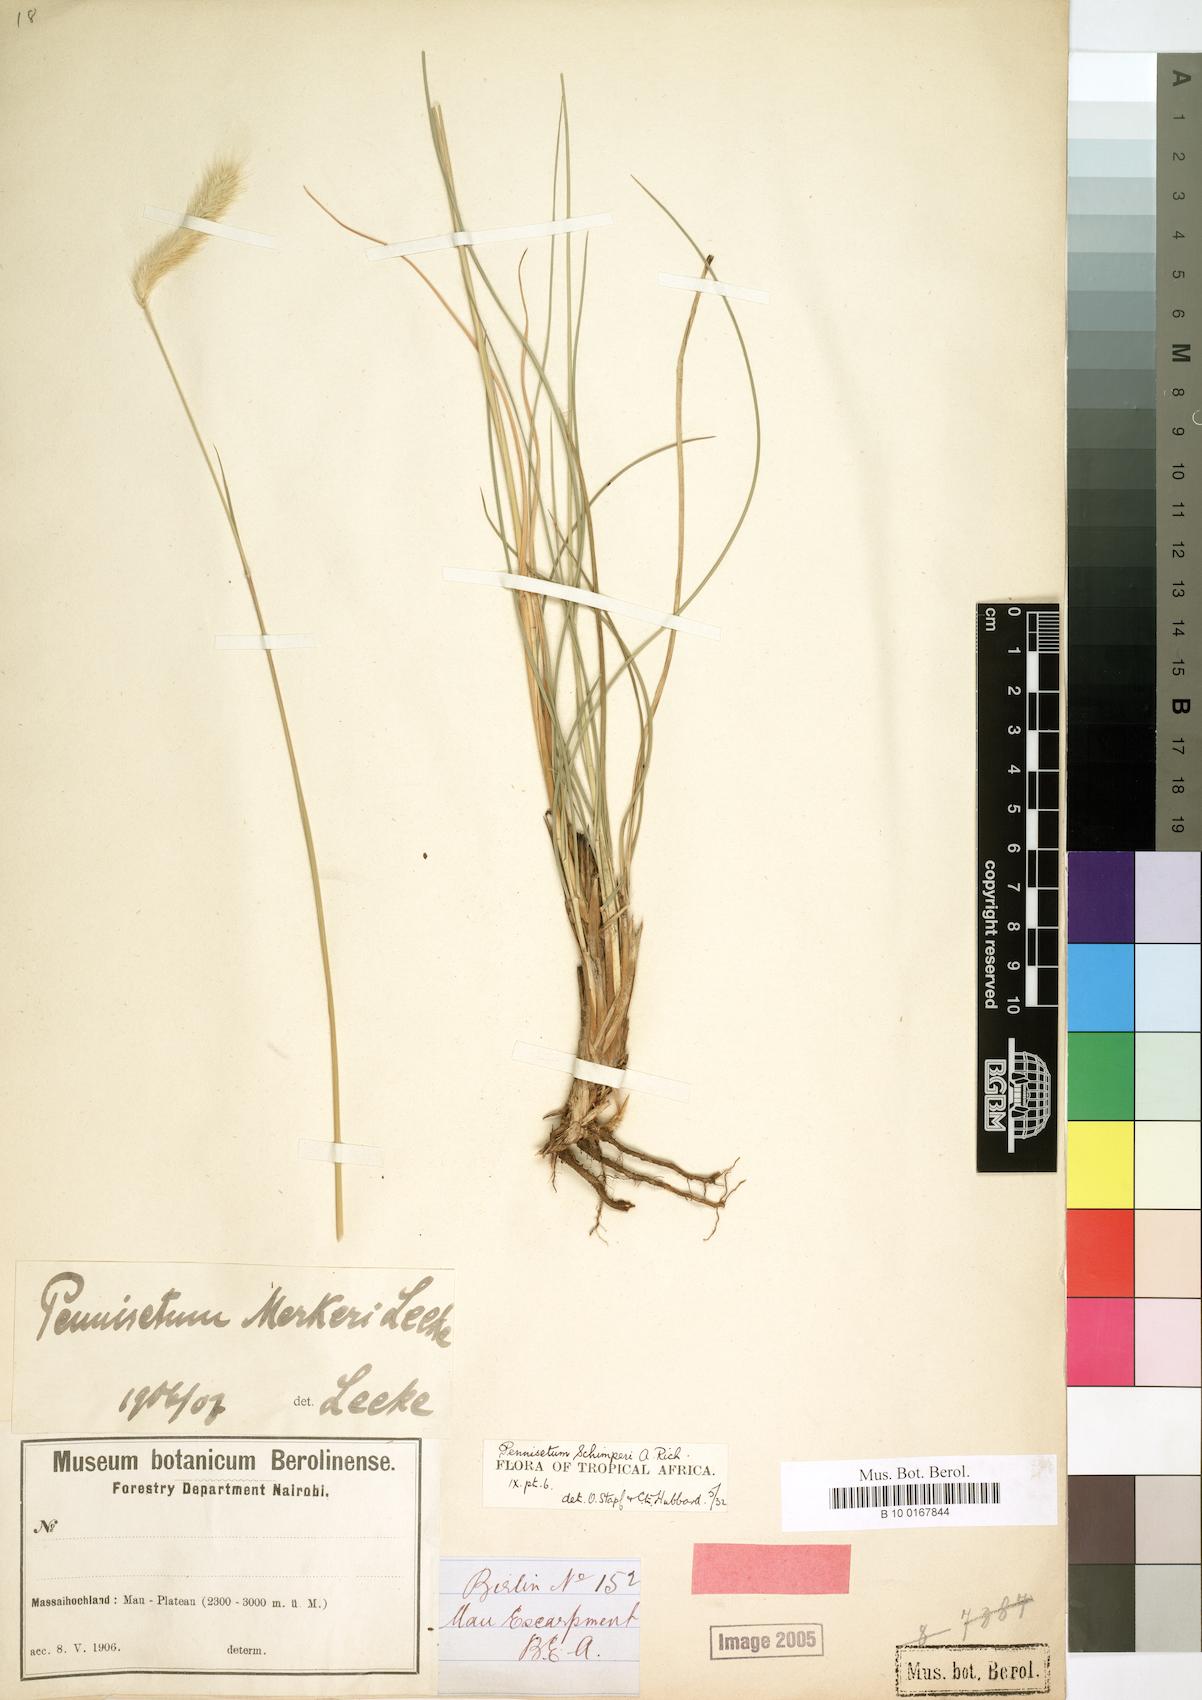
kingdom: Plantae
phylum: Tracheophyta
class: Liliopsida
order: Poales
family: Poaceae
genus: Cenchrus
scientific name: Cenchrus sphacelatus
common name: Bulgras
